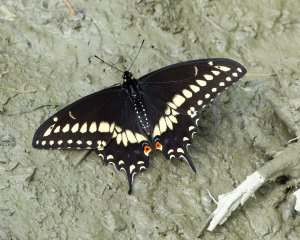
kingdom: Animalia
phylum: Arthropoda
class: Insecta
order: Lepidoptera
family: Papilionidae
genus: Papilio
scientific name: Papilio polyxenes
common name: Black Swallowtail
